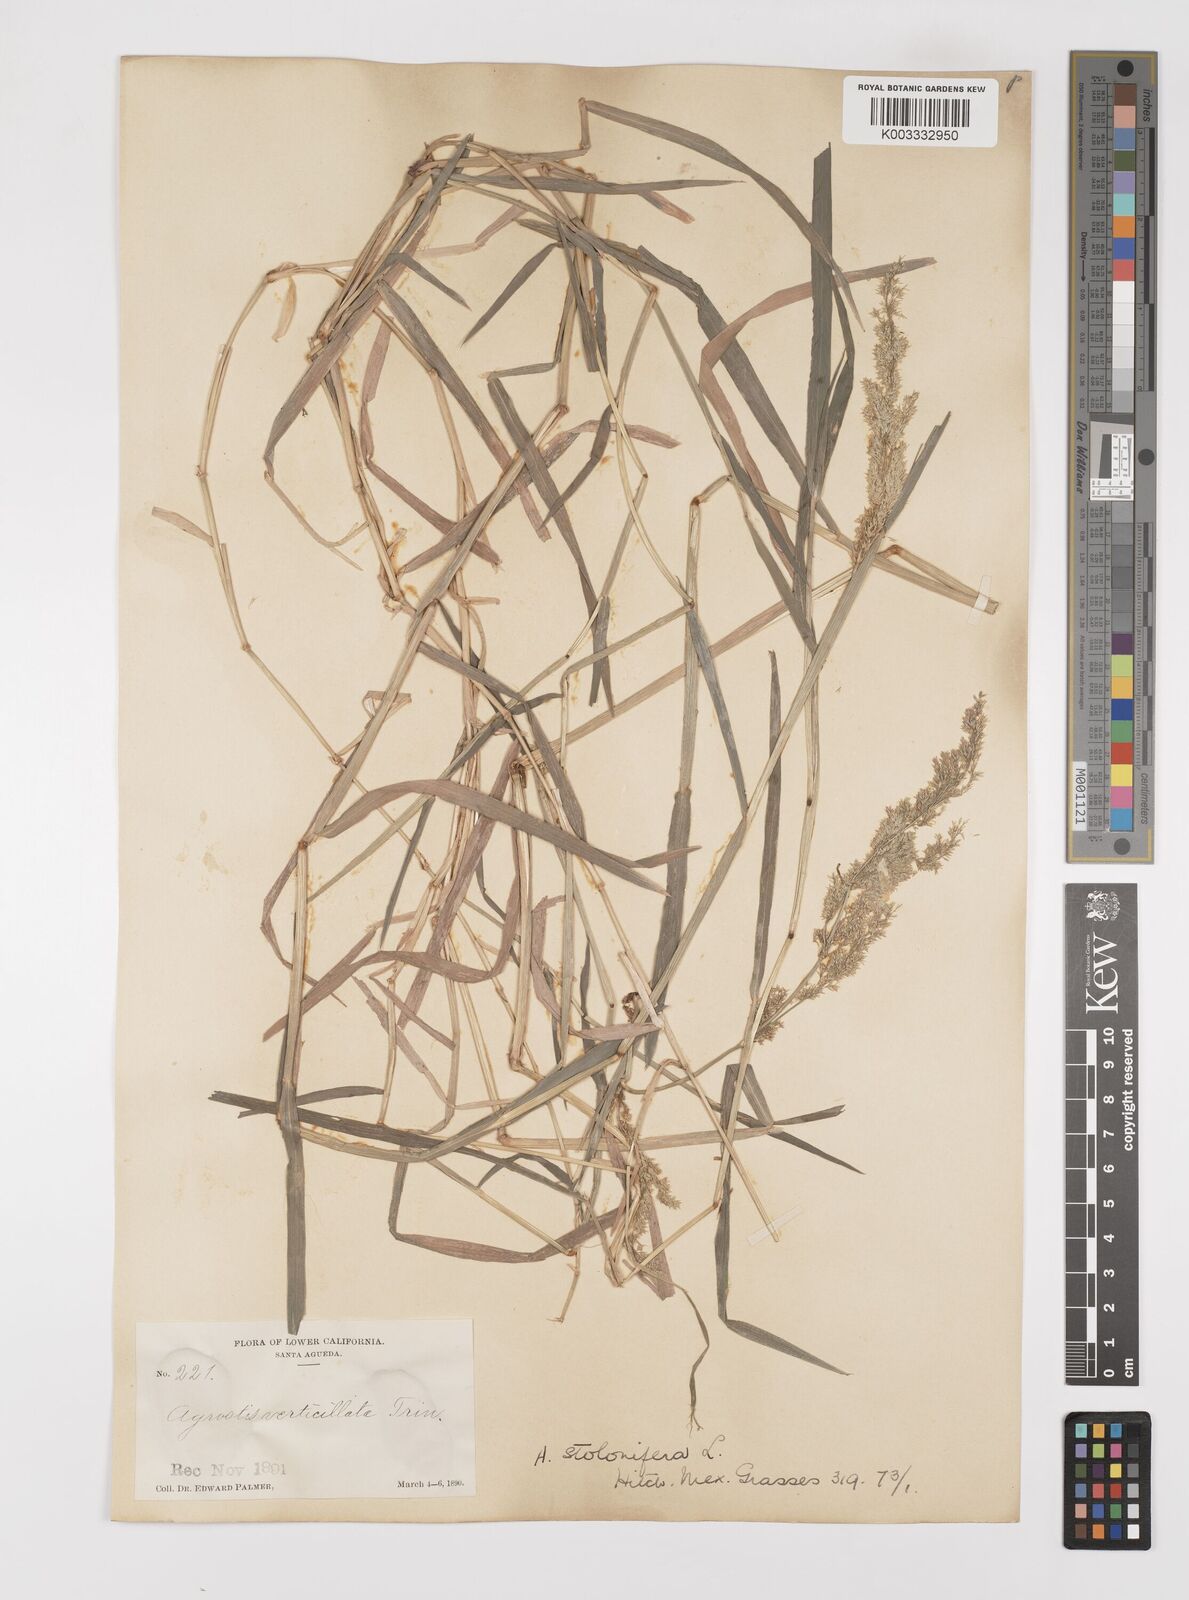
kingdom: Plantae
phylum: Tracheophyta
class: Liliopsida
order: Poales
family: Poaceae
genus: Polypogon
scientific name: Polypogon viridis
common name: Water bent
